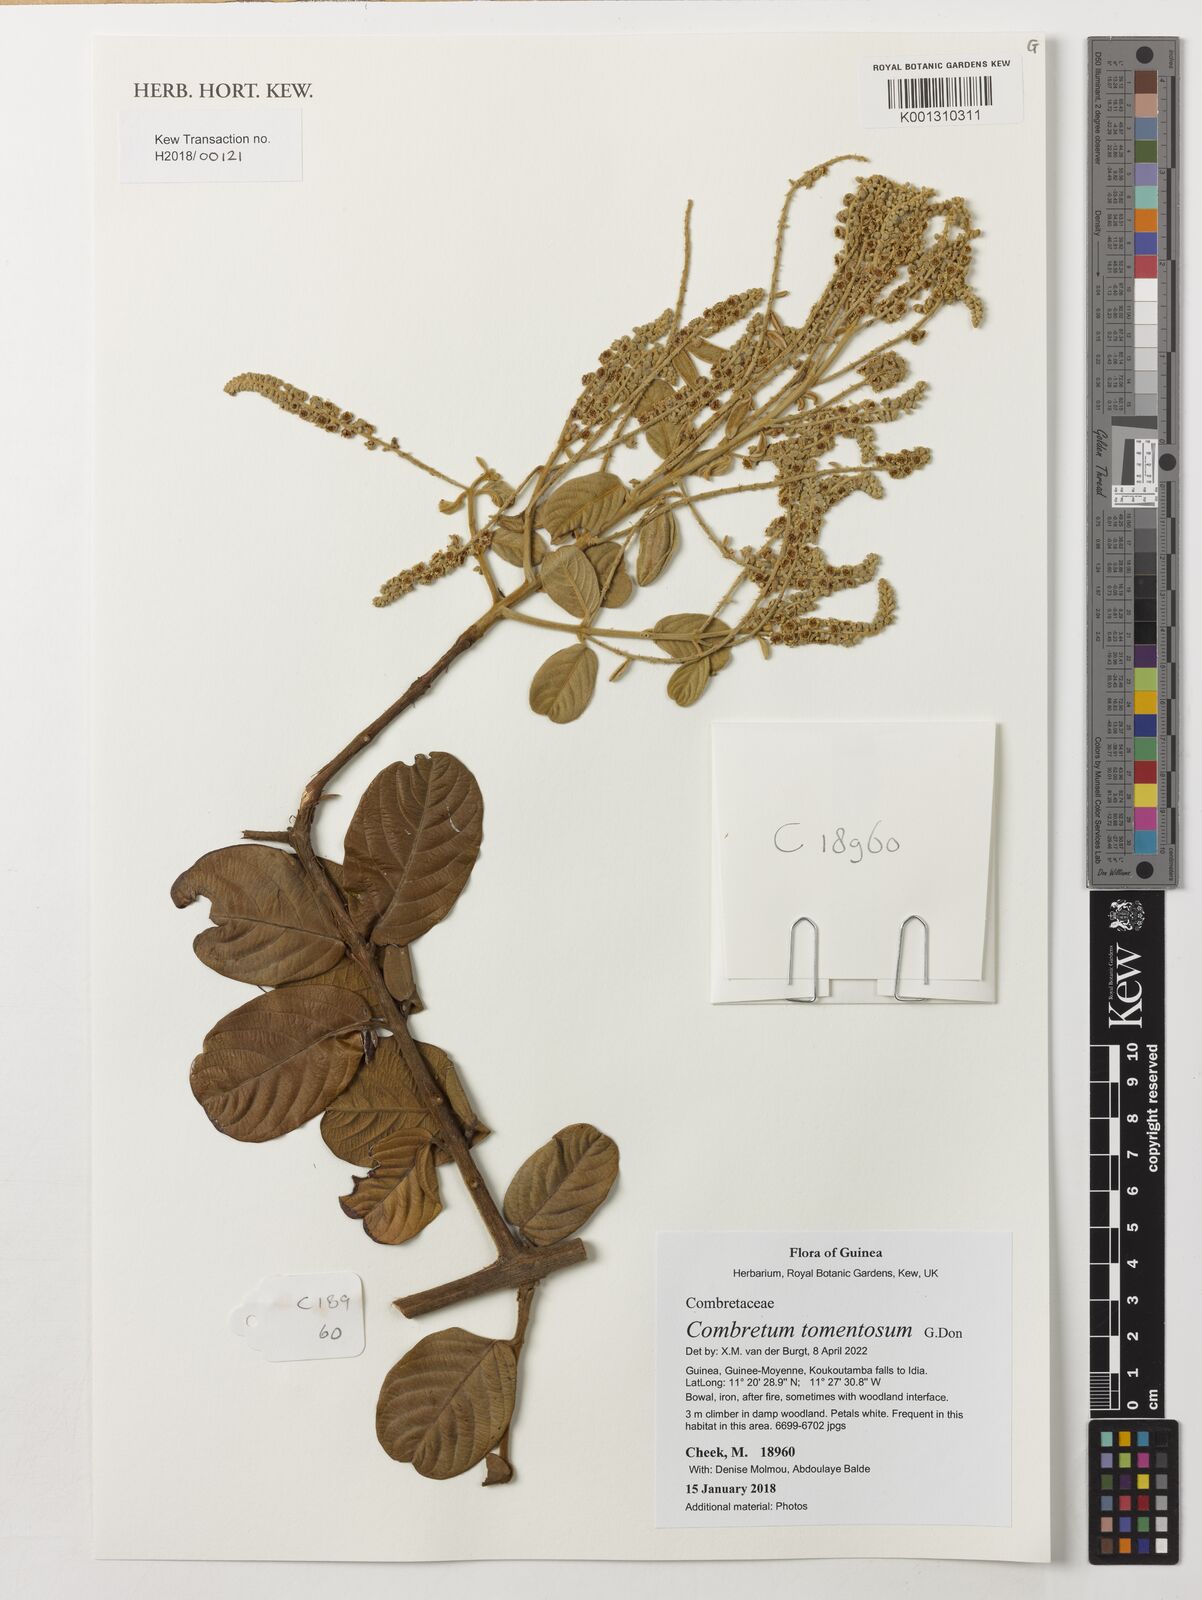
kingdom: Plantae
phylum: Tracheophyta
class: Magnoliopsida
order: Myrtales
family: Combretaceae
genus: Combretum
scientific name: Combretum tomentosum
